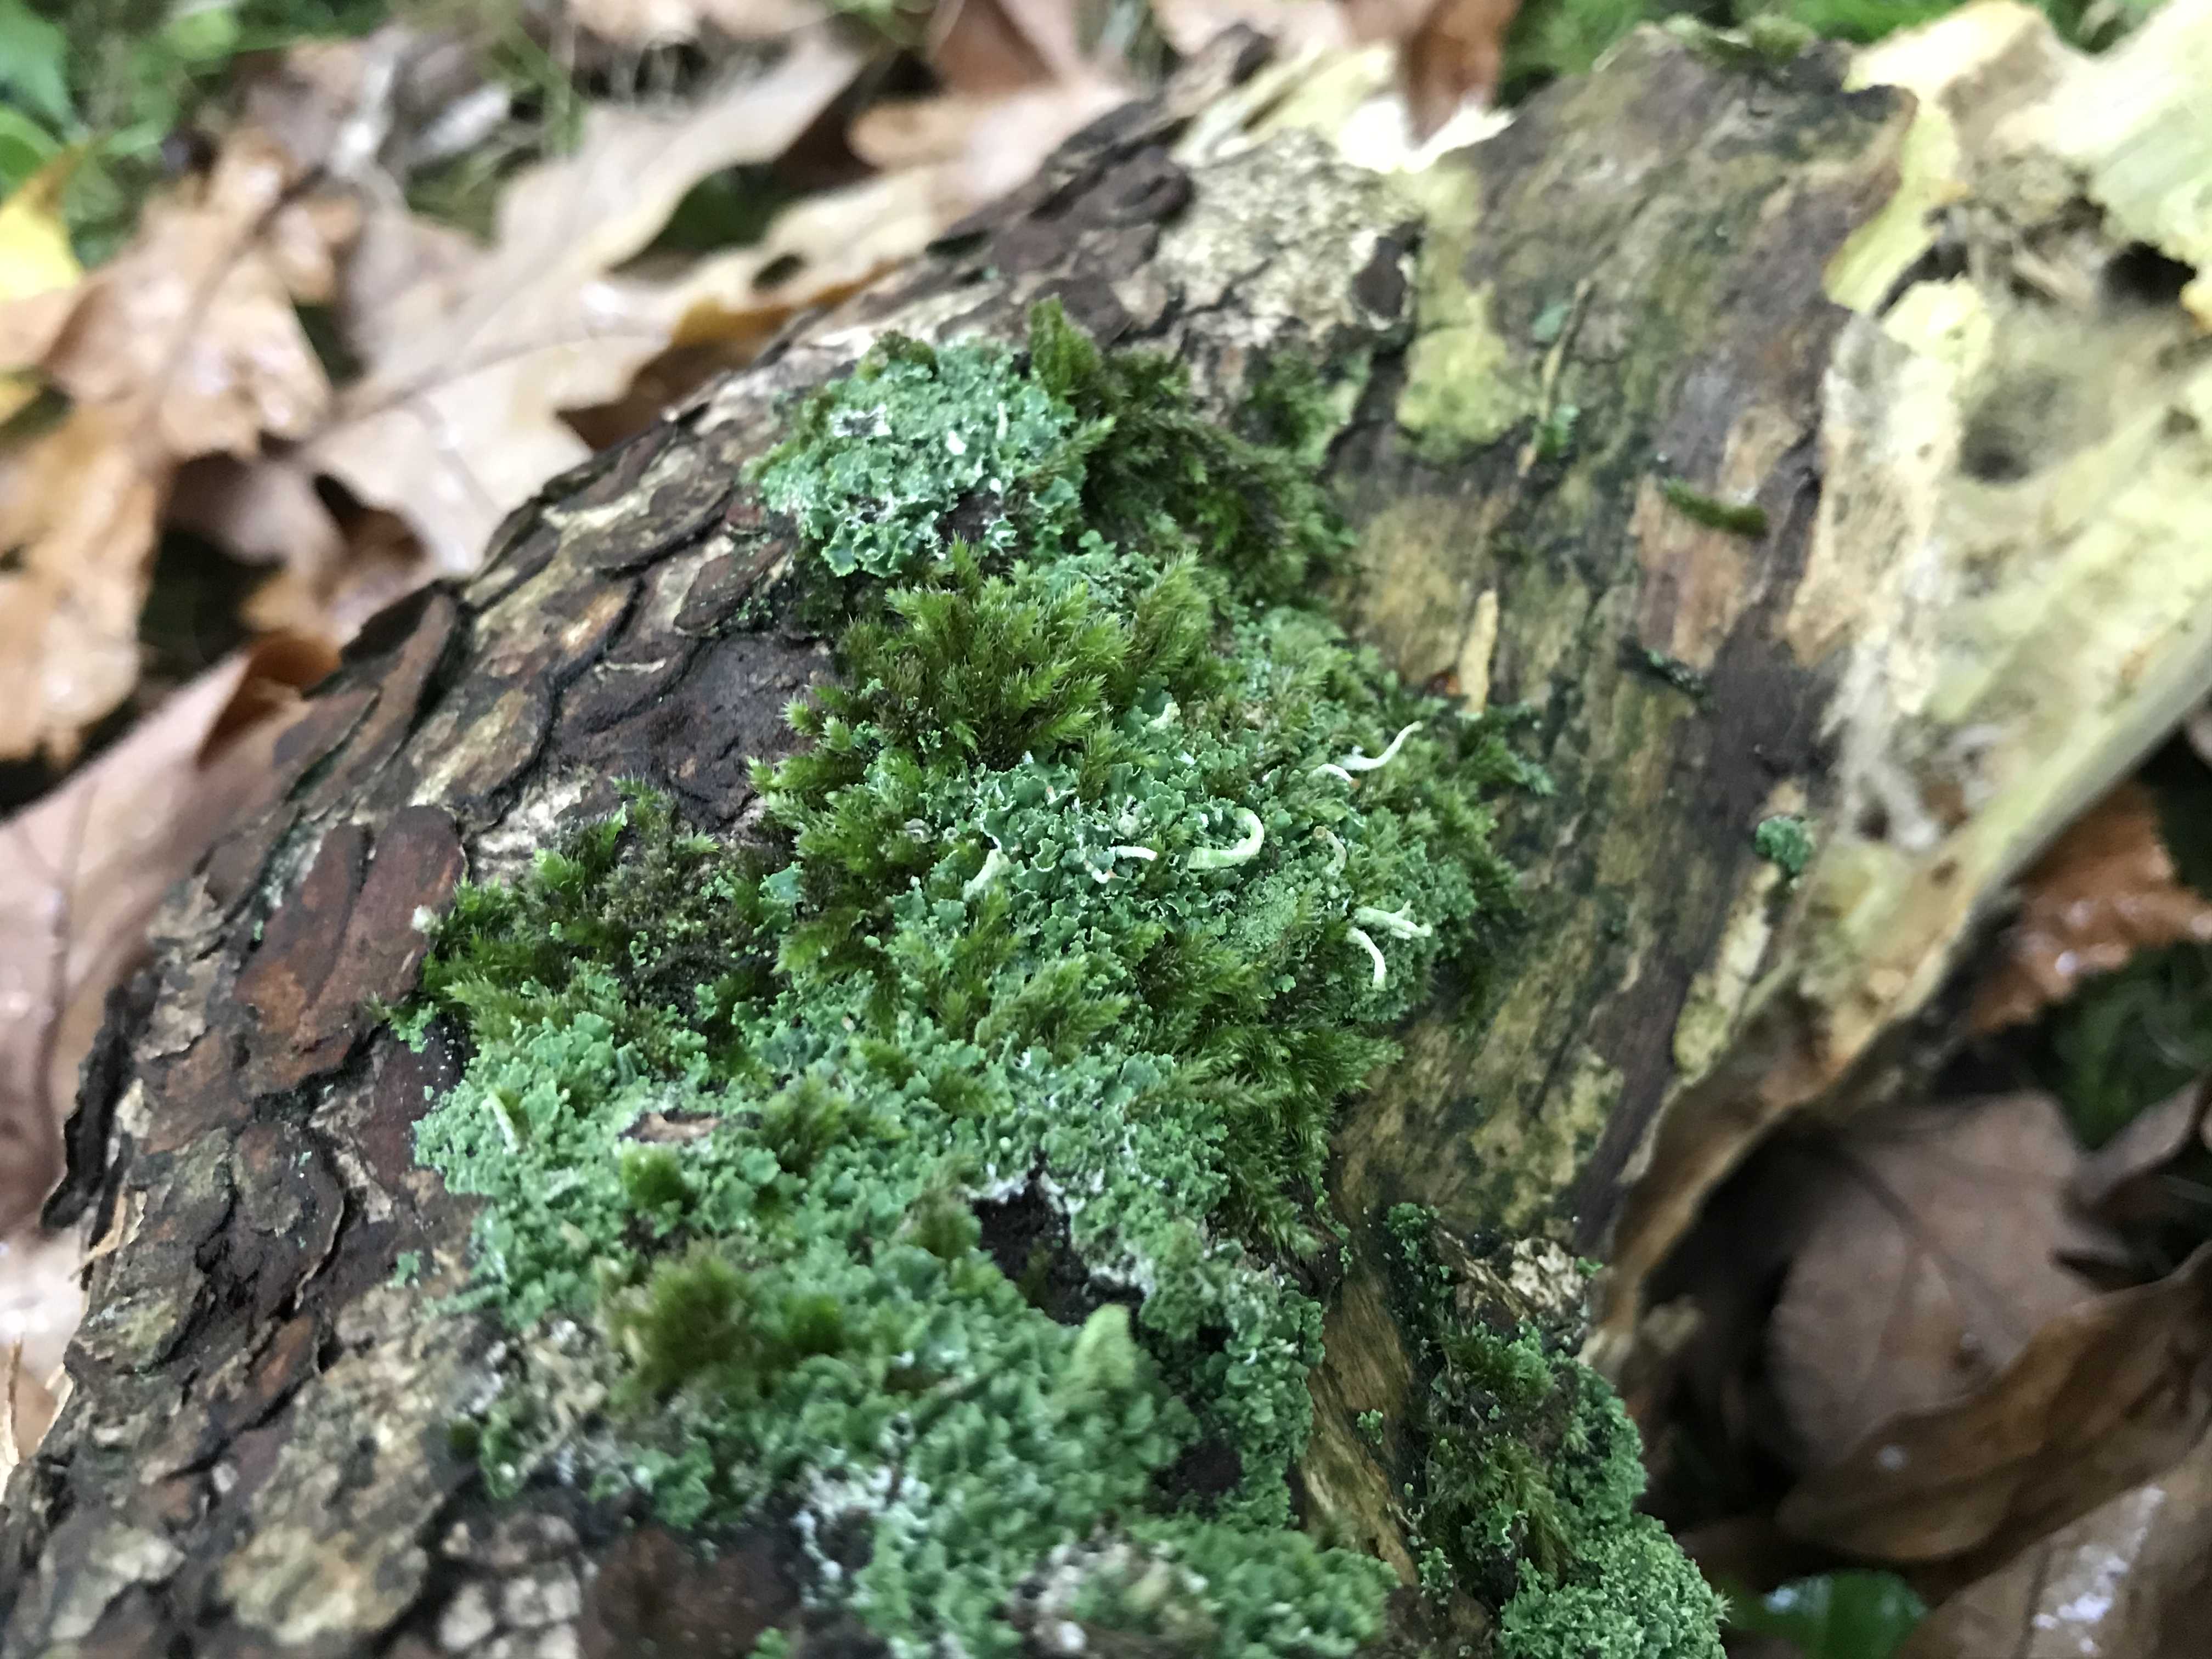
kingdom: Fungi
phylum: Ascomycota
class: Lecanoromycetes
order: Lecanorales
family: Cladoniaceae
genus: Cladonia
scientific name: Cladonia
